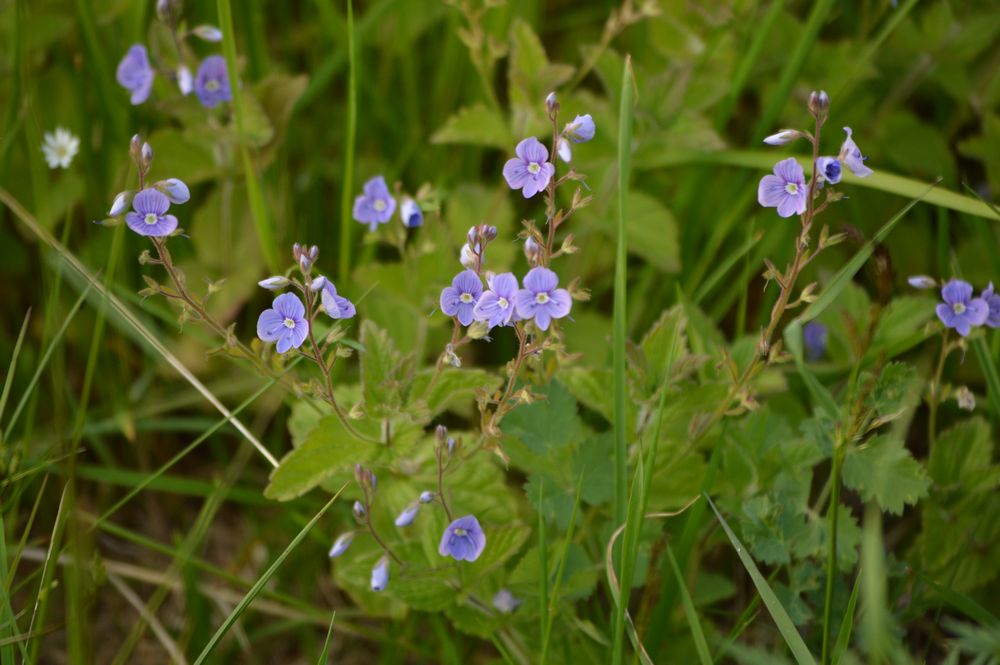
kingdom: Plantae
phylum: Tracheophyta
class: Magnoliopsida
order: Lamiales
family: Plantaginaceae
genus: Veronica
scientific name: Veronica chamaedrys
